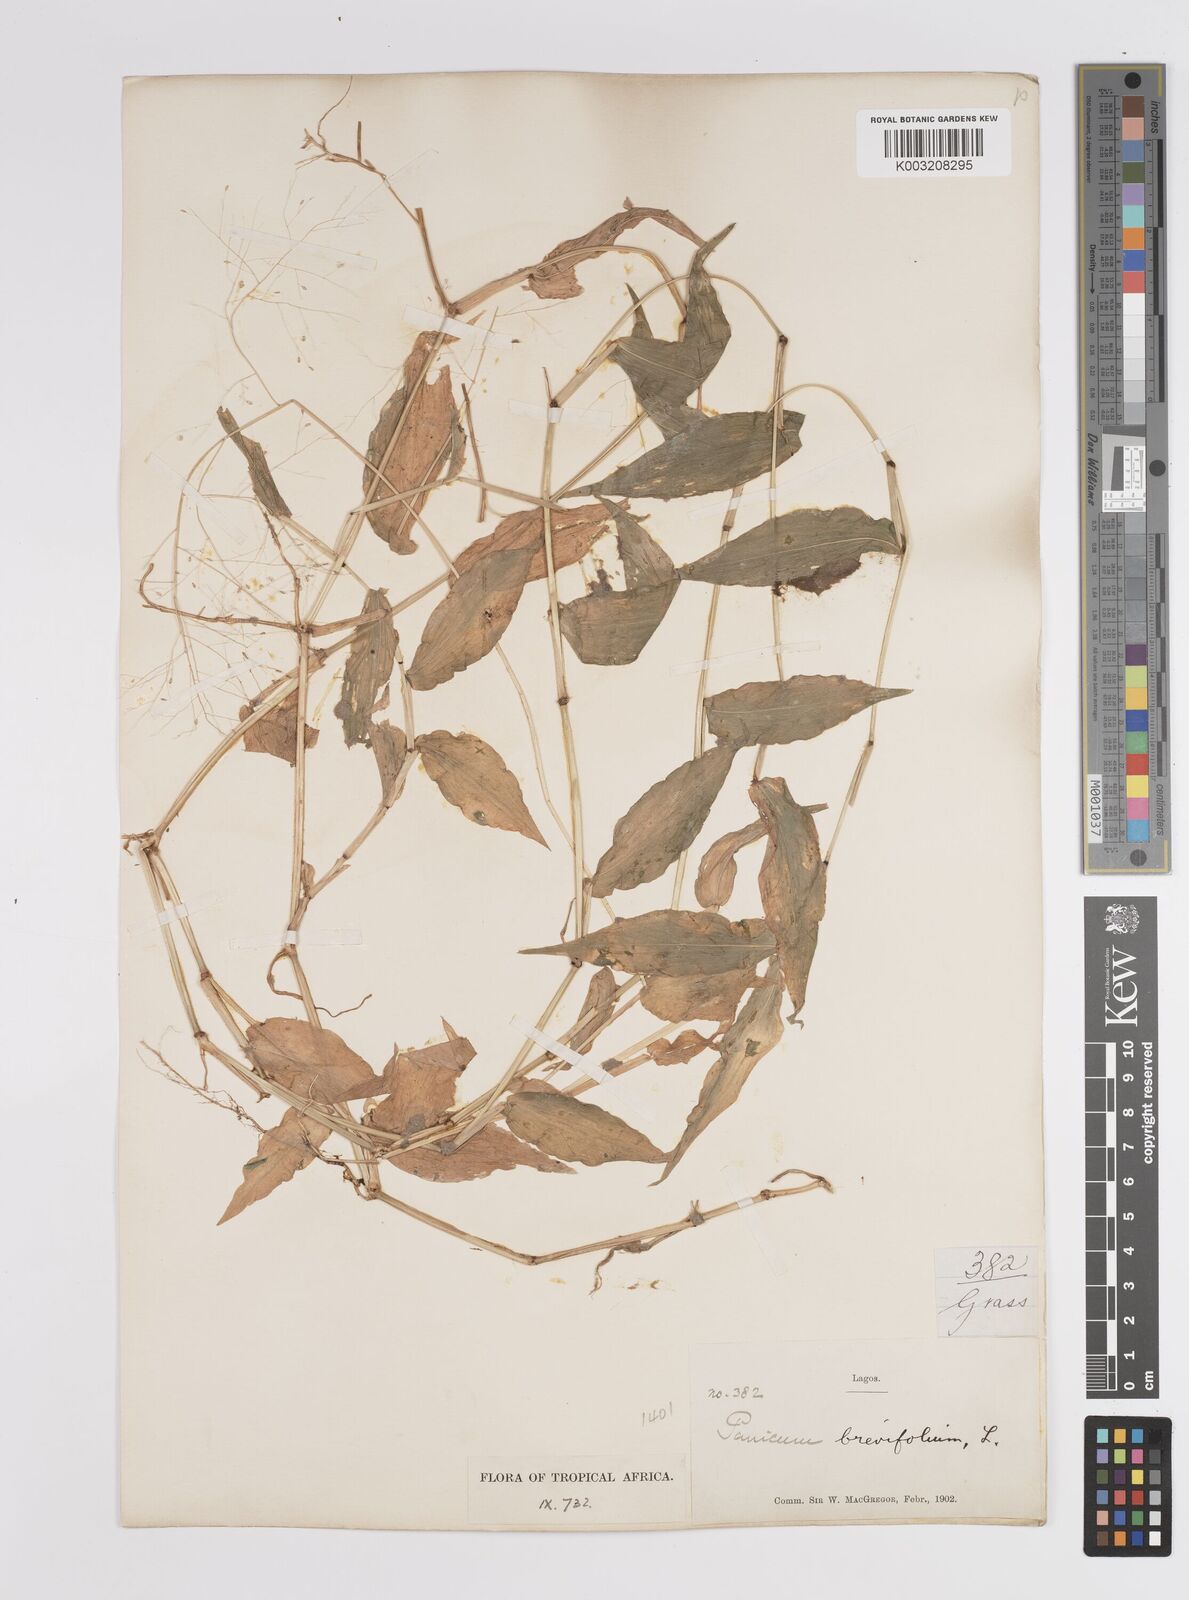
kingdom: Plantae
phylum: Tracheophyta
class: Liliopsida
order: Poales
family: Poaceae
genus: Panicum
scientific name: Panicum brevifolium
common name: Shortleaf panic grass
